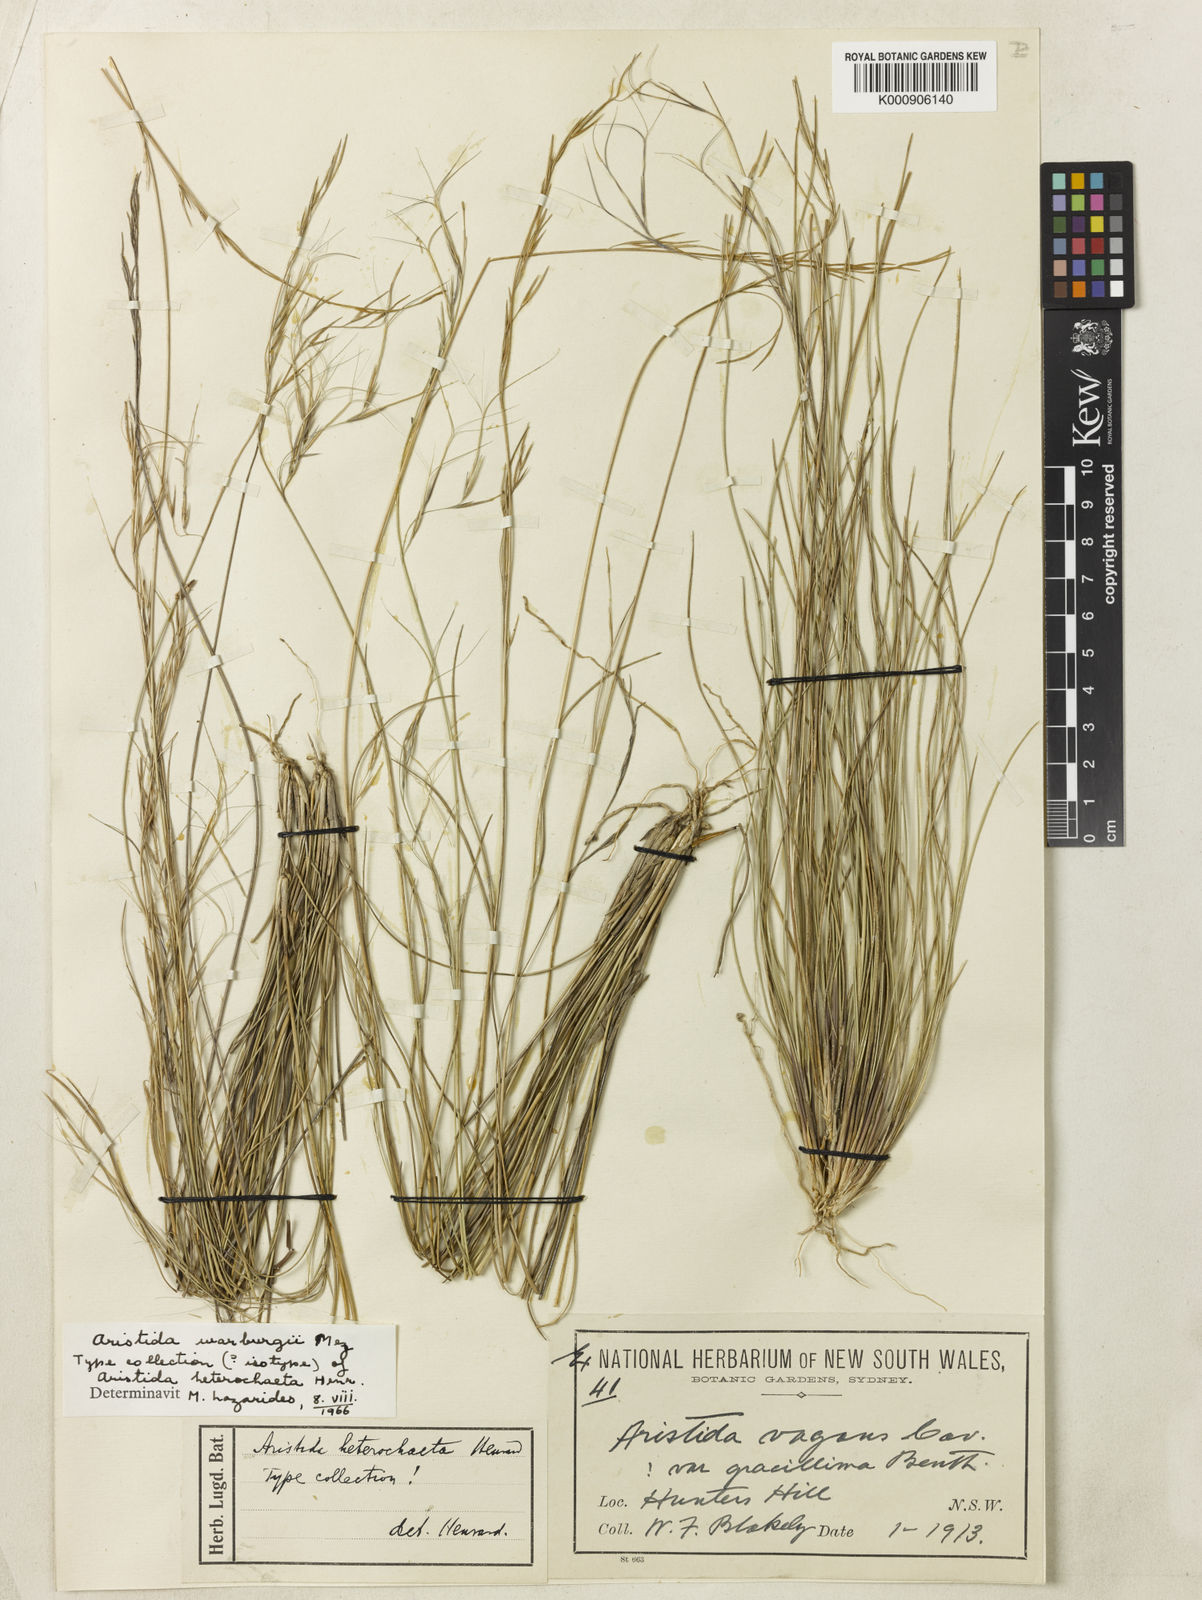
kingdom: Plantae
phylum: Tracheophyta
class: Liliopsida
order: Poales
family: Poaceae
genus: Aristida
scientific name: Aristida warburgii
